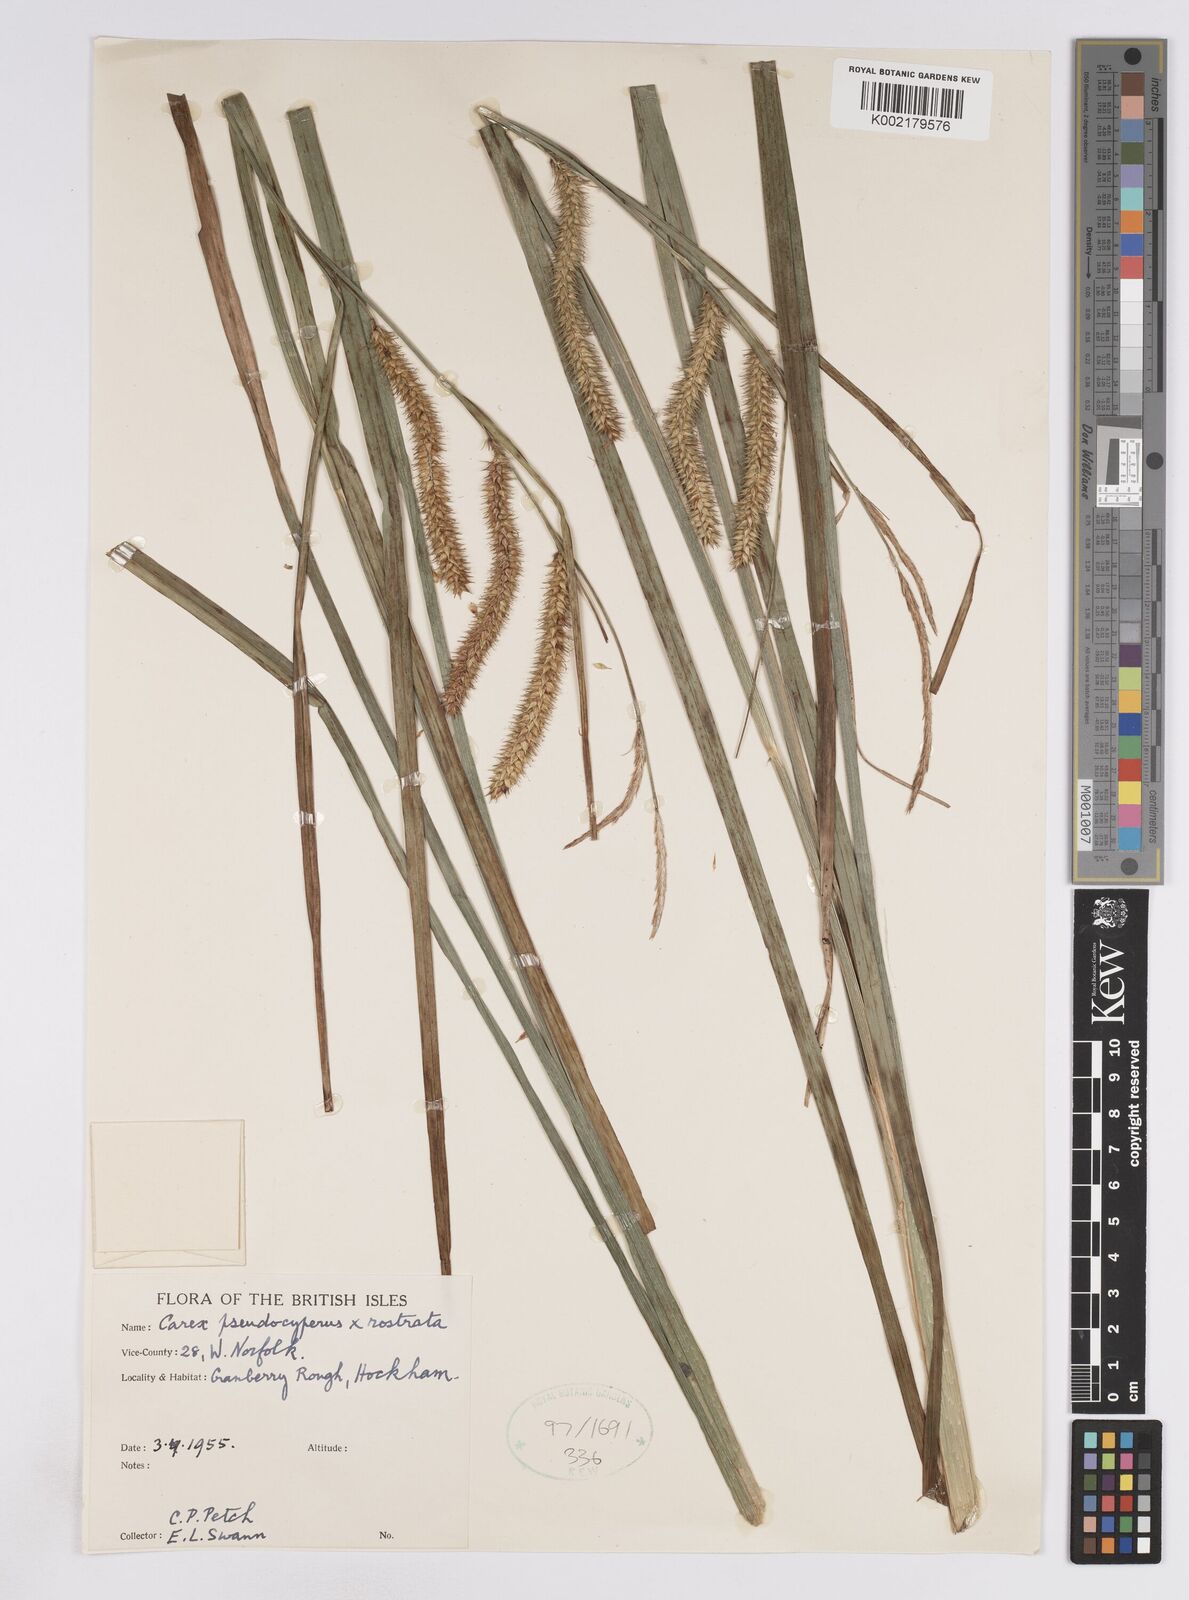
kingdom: Plantae
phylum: Tracheophyta
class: Liliopsida
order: Poales
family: Cyperaceae
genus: Carex
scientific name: Carex pseudocyperus
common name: Cyperus sedge
